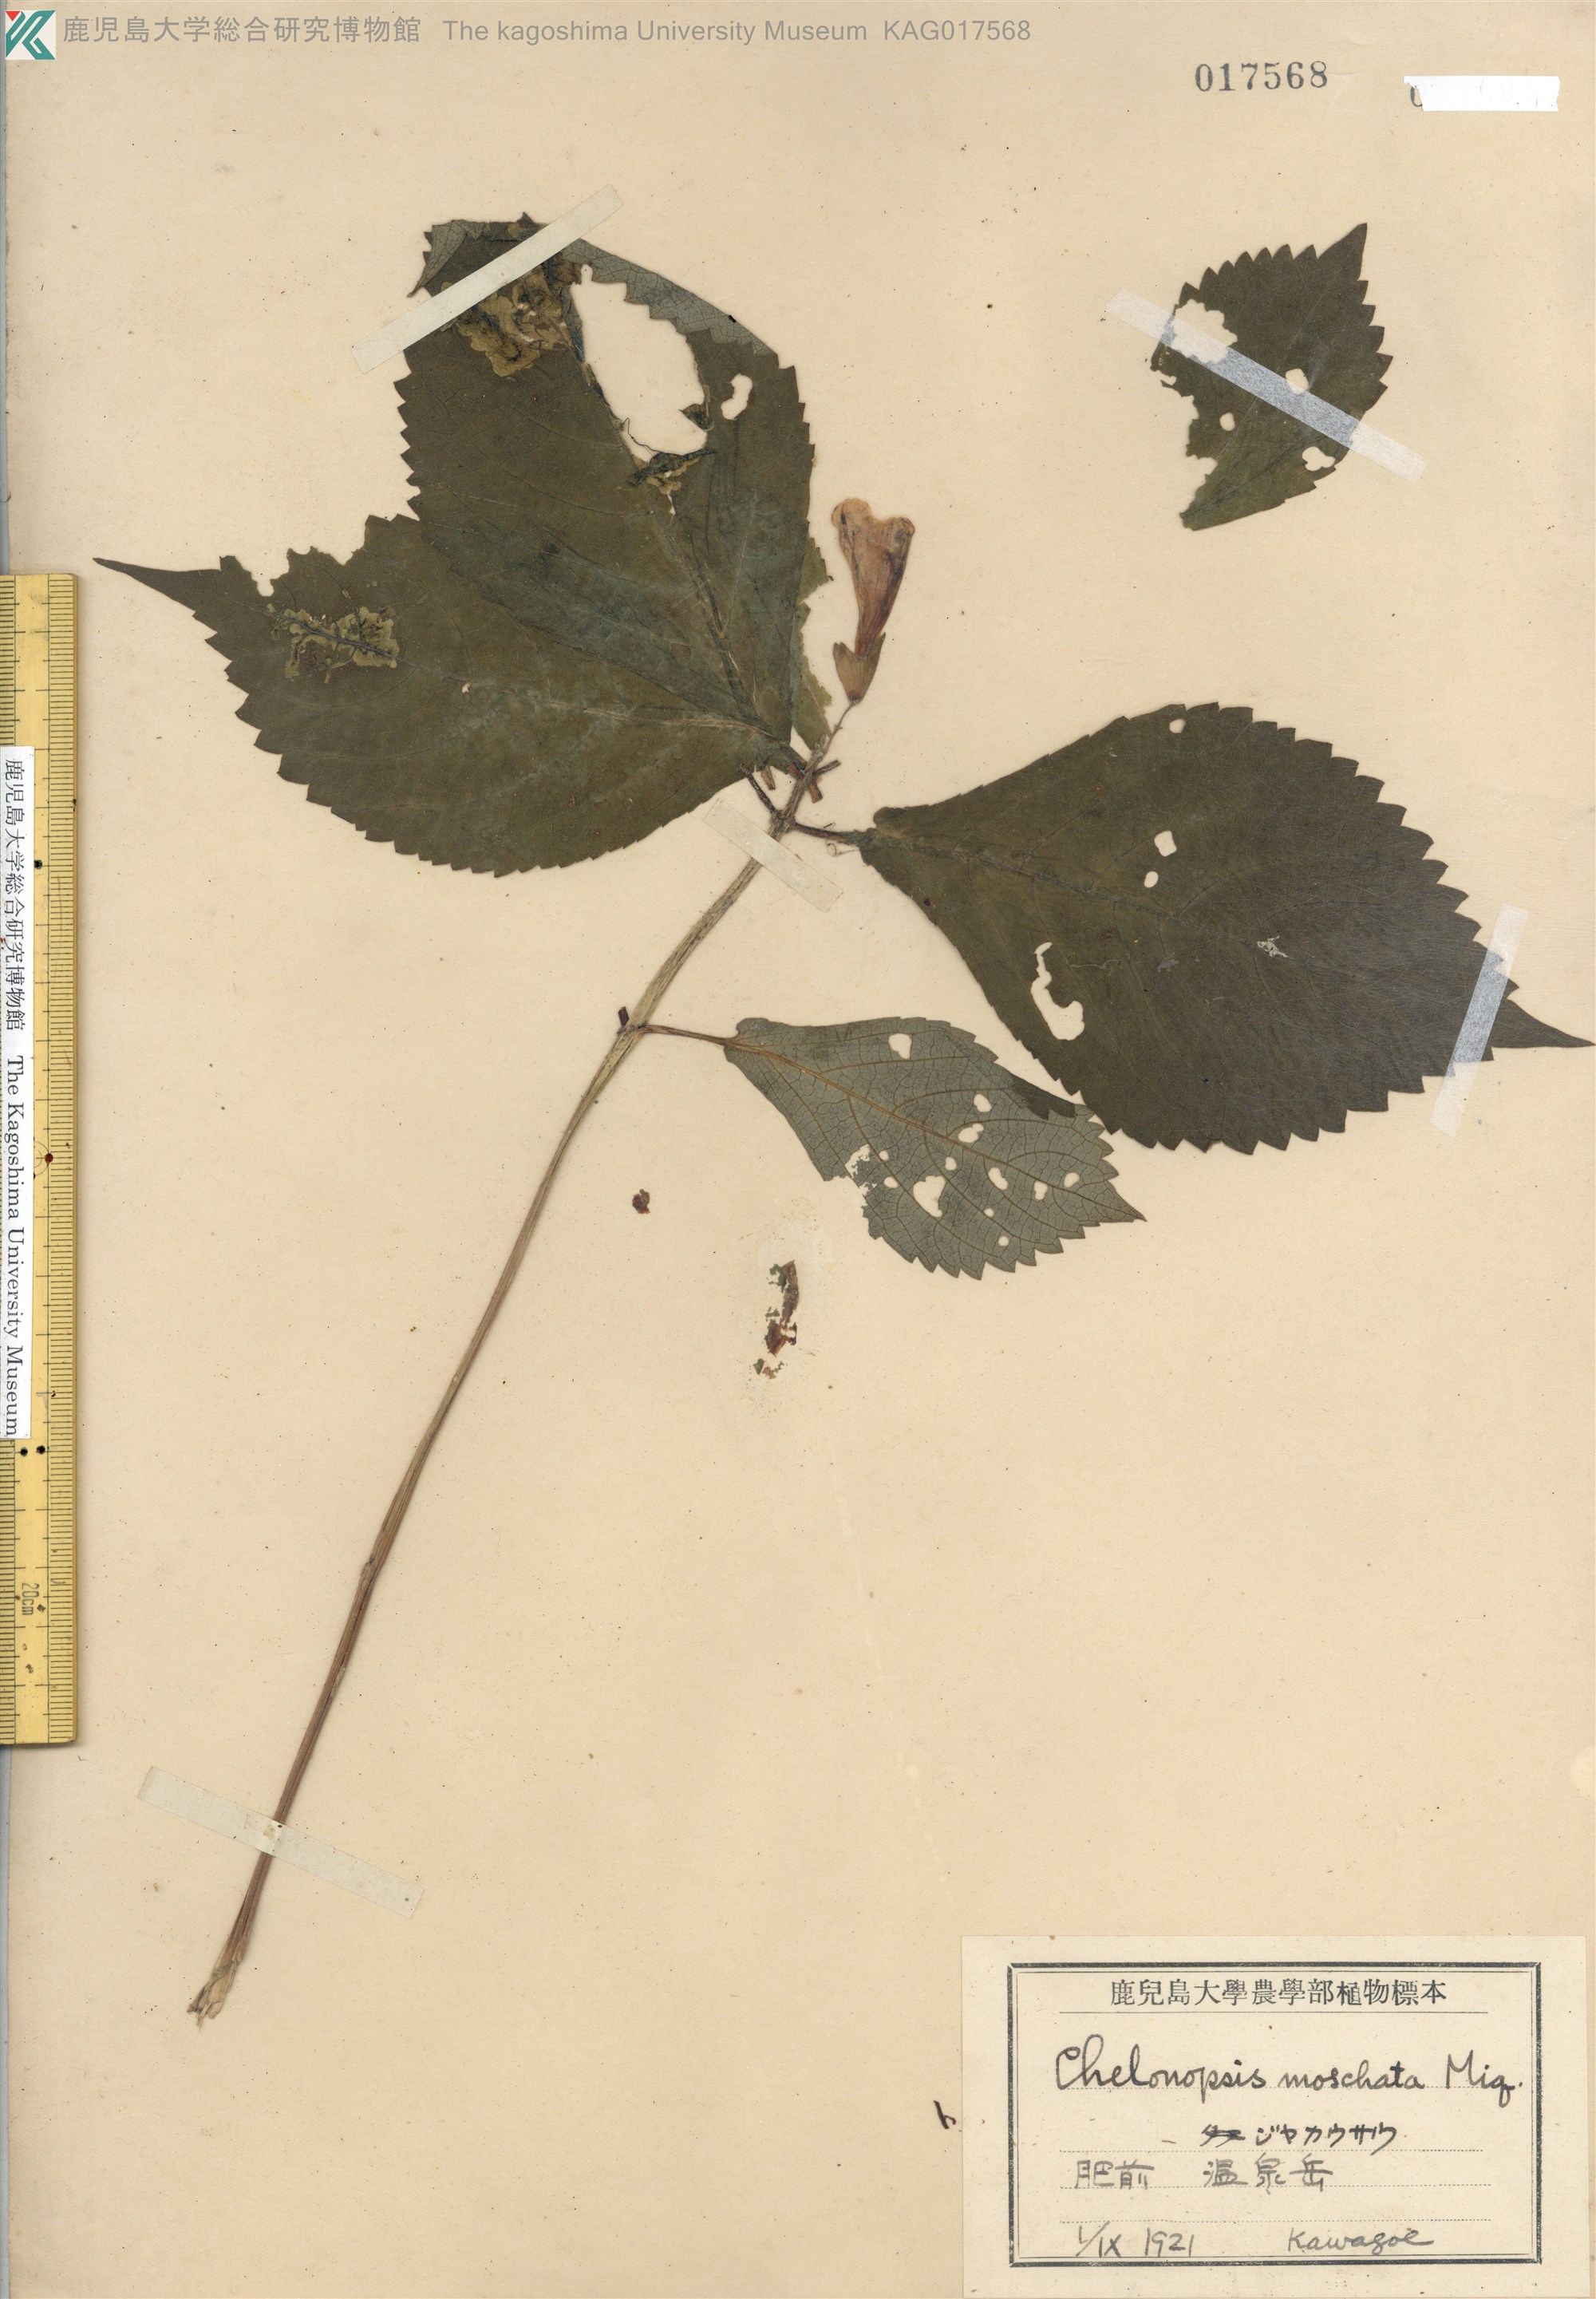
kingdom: Plantae
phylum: Tracheophyta
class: Magnoliopsida
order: Lamiales
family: Lamiaceae
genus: Chelonopsis
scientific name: Chelonopsis moschata
